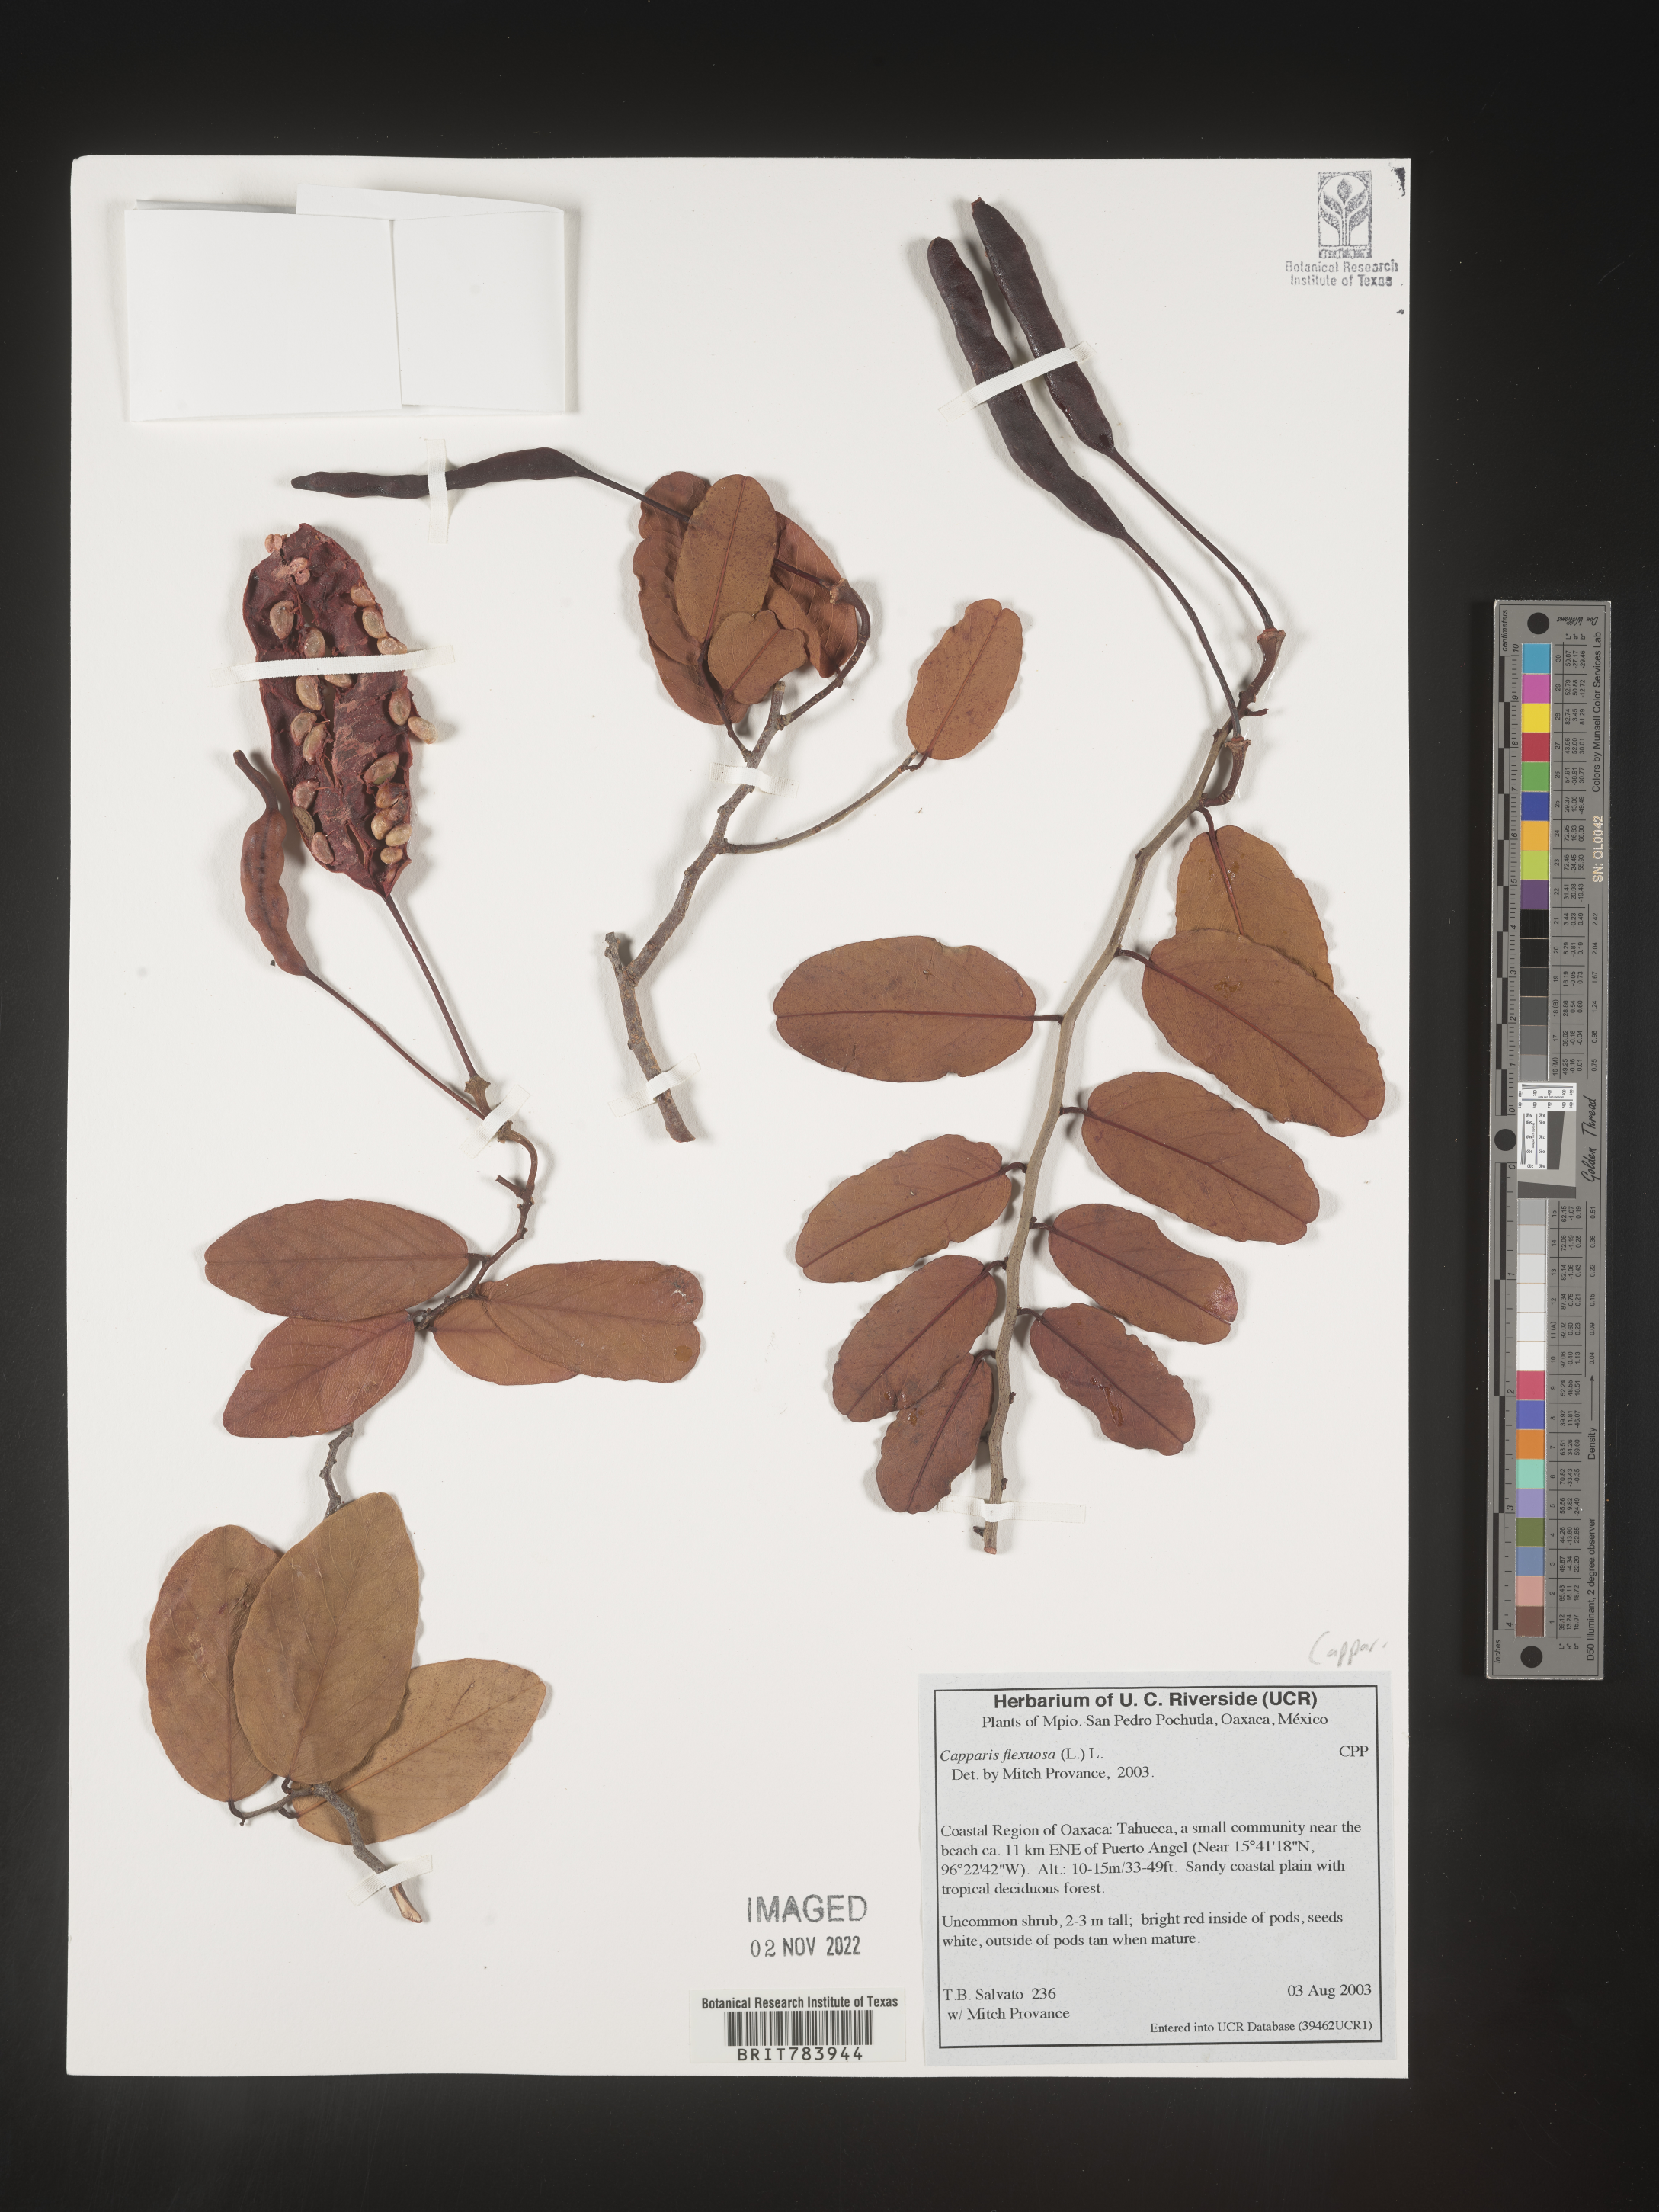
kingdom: Plantae
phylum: Tracheophyta
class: Magnoliopsida
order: Brassicales
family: Capparaceae
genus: Capparis
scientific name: Capparis
